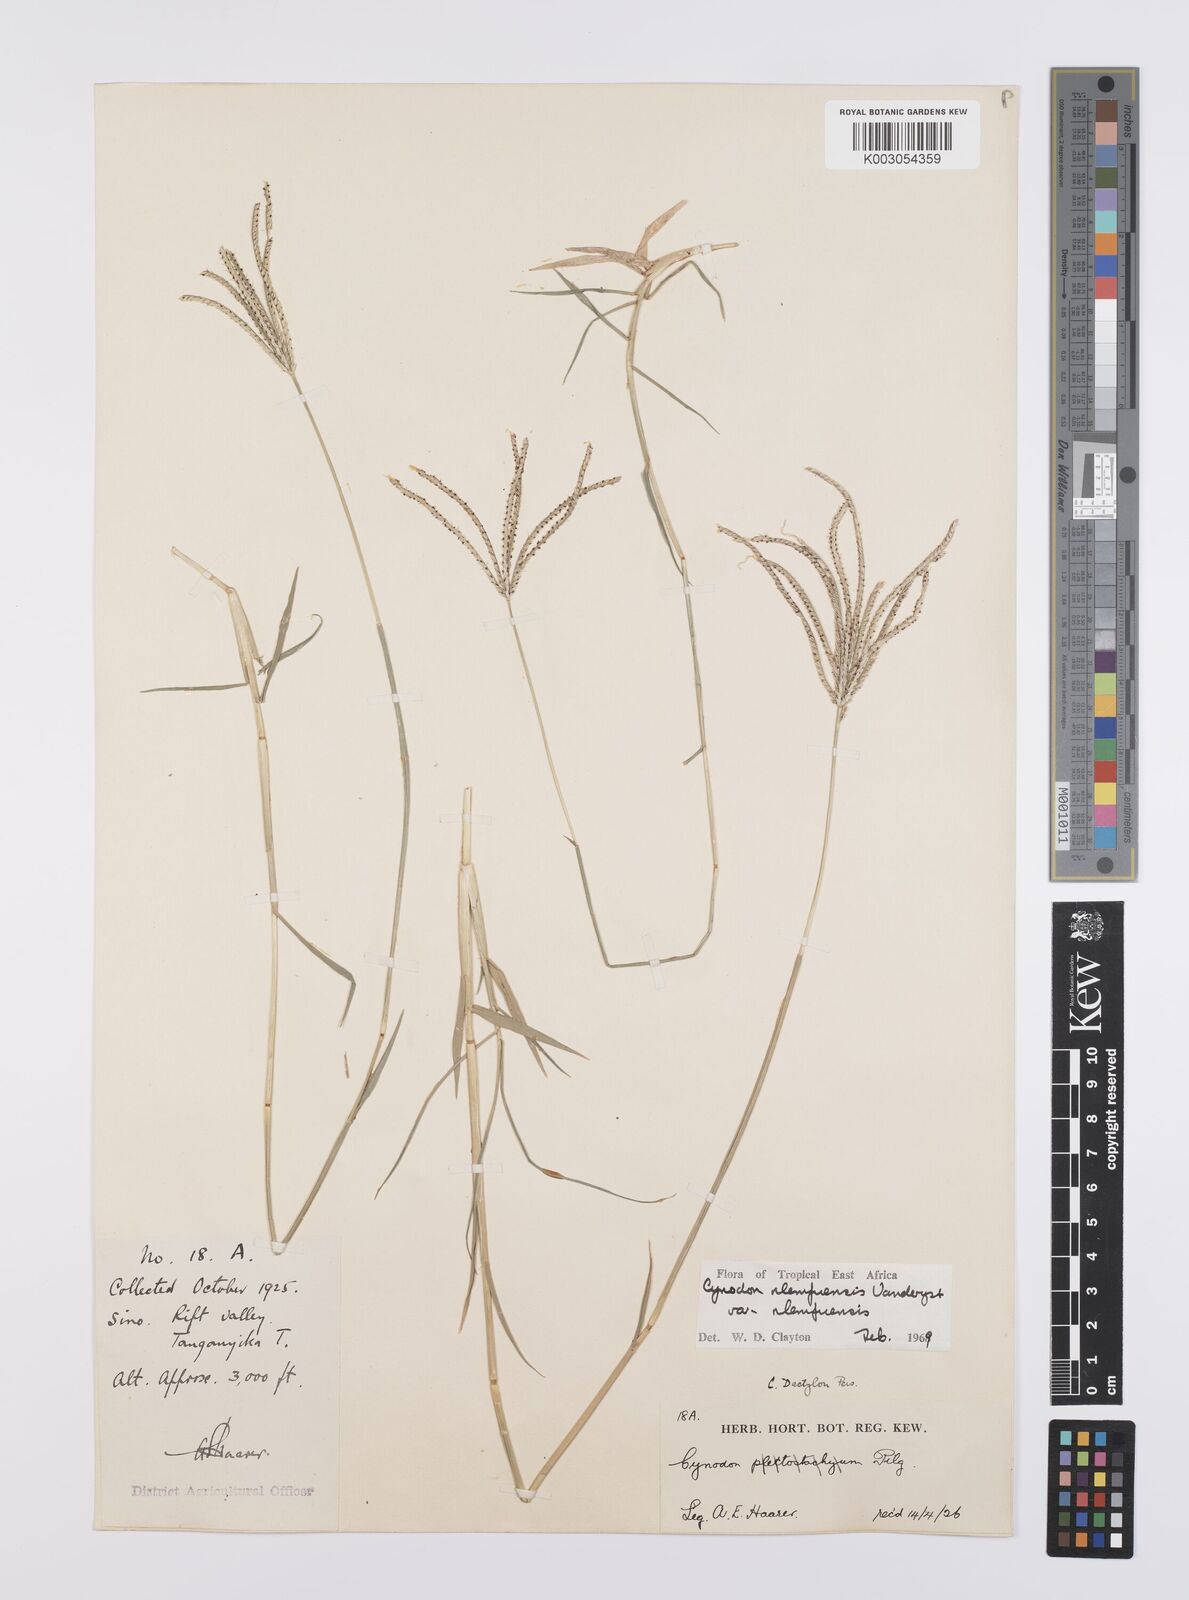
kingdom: Plantae
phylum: Tracheophyta
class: Liliopsida
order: Poales
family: Poaceae
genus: Cynodon
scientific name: Cynodon nlemfuensis
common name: African bermudagrass
